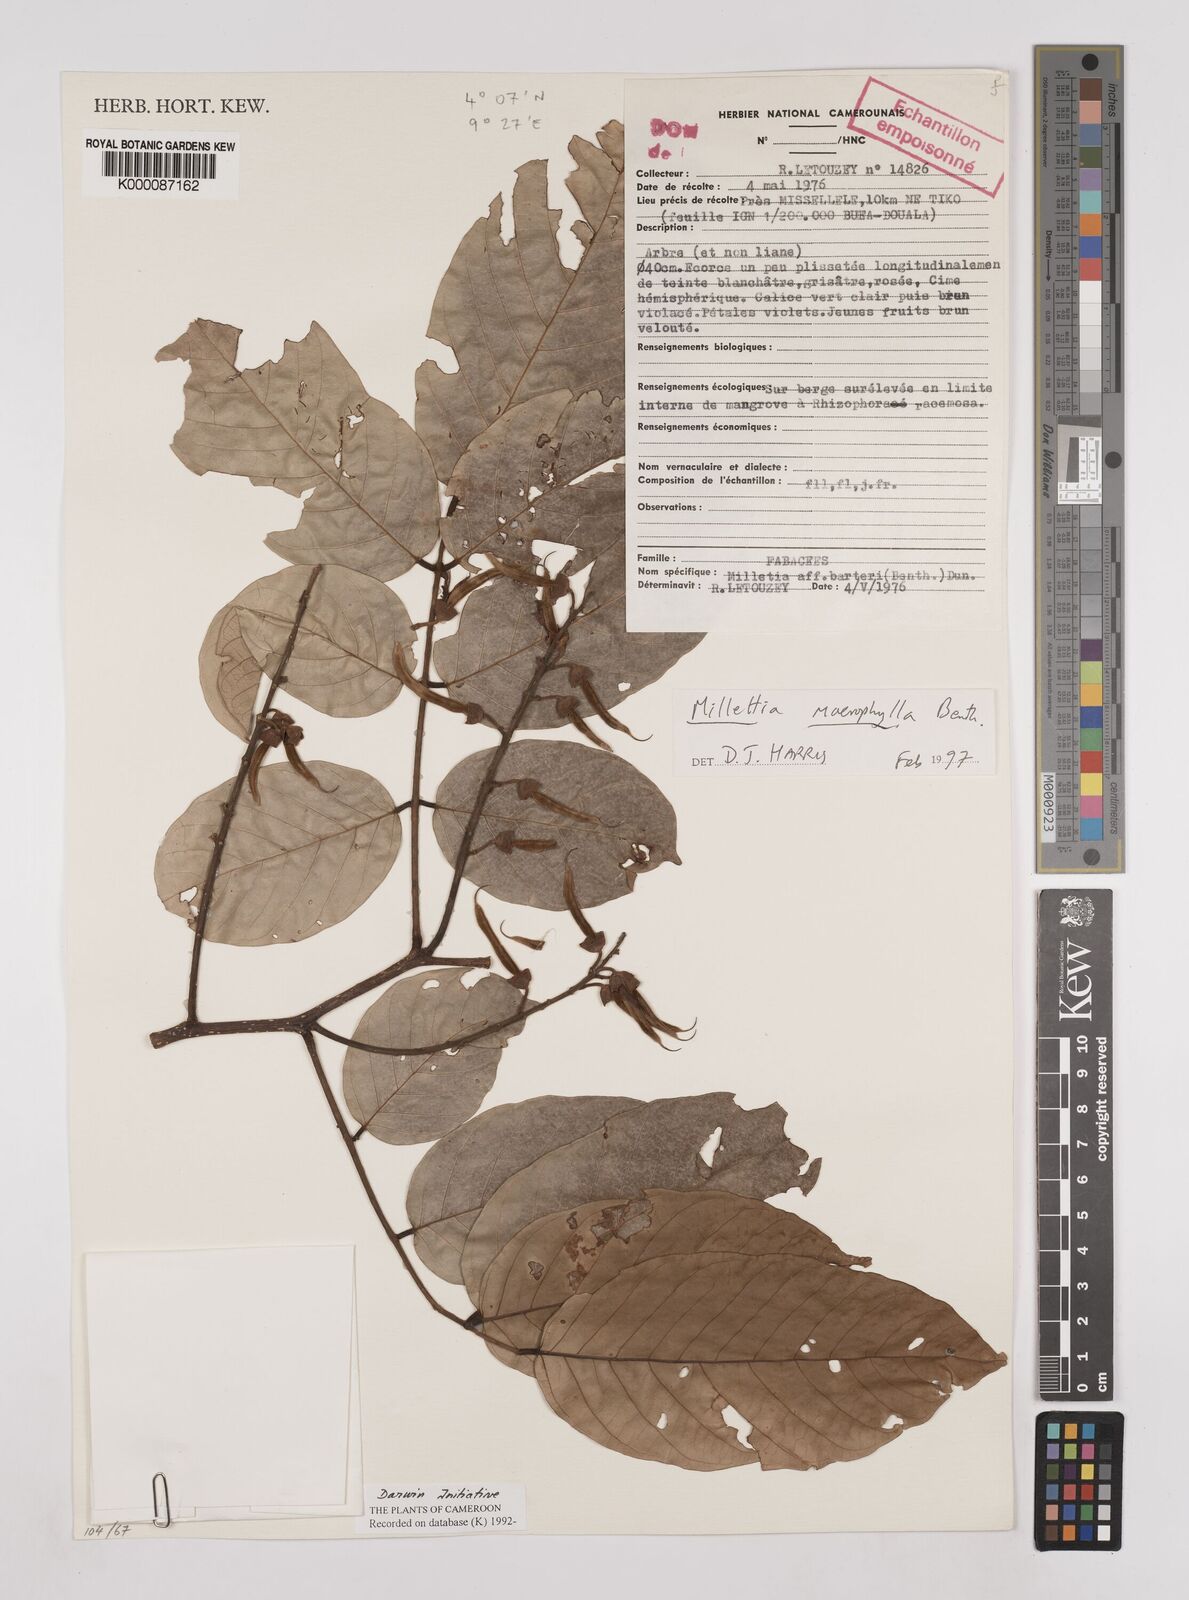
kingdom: Plantae
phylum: Tracheophyta
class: Magnoliopsida
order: Fabales
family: Fabaceae
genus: Millettia
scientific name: Millettia macrophylla
